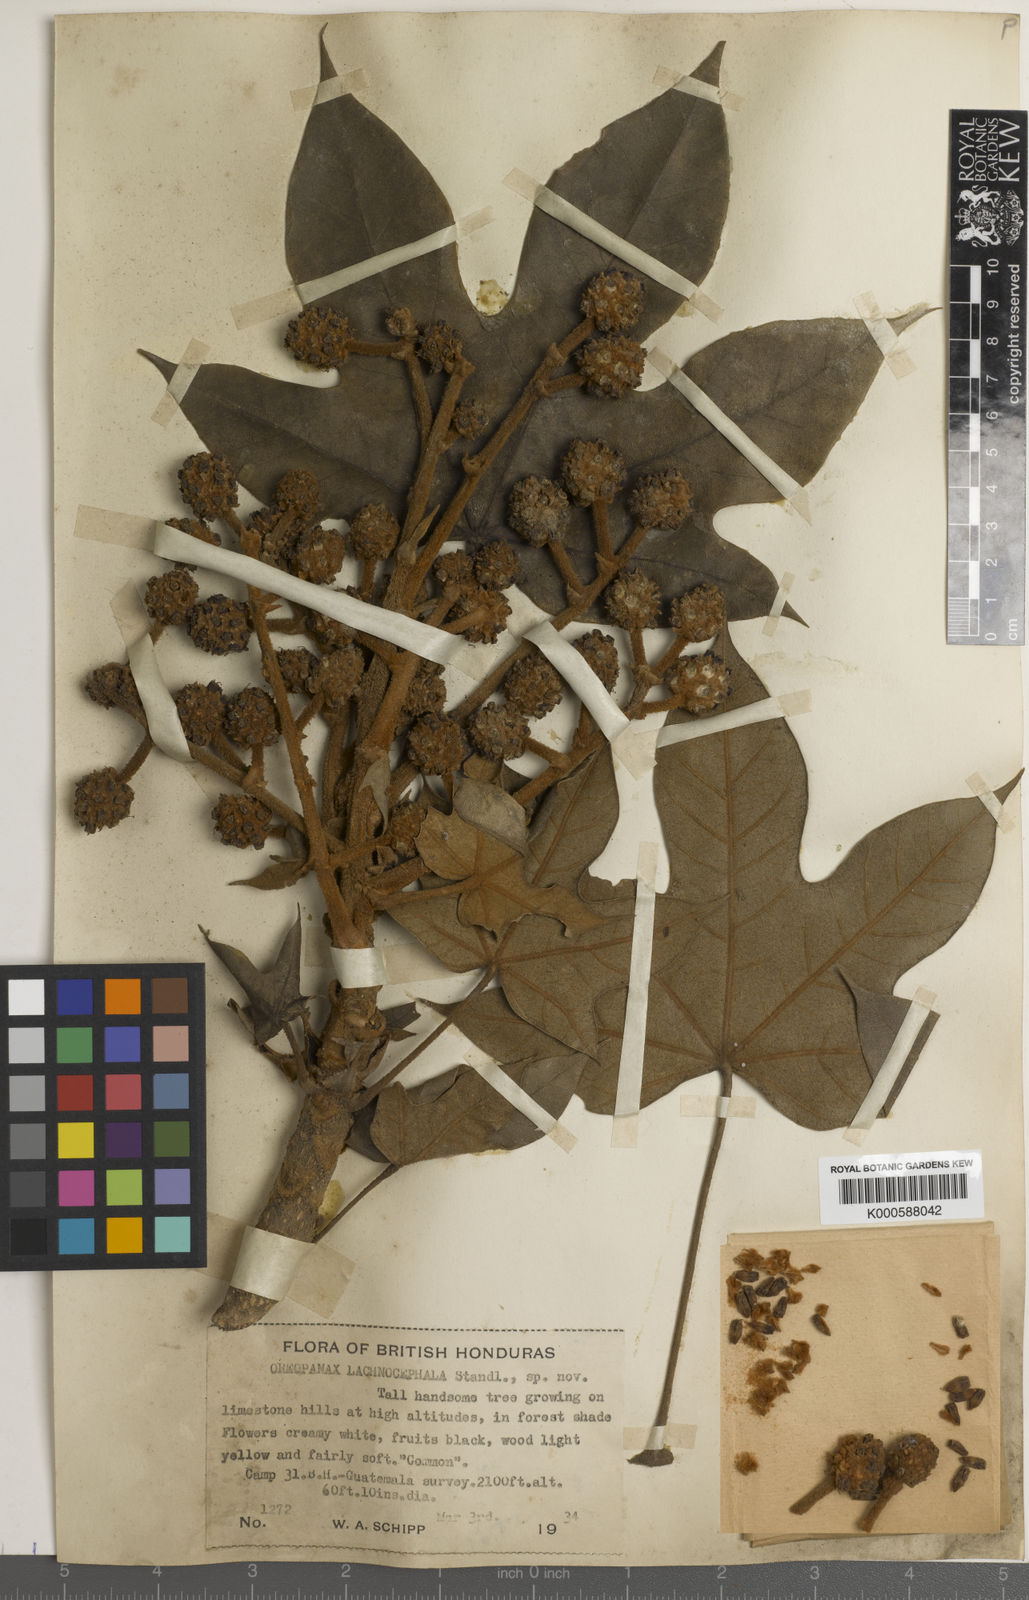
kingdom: Plantae
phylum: Tracheophyta
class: Magnoliopsida
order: Apiales
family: Araliaceae
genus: Oreopanax
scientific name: Oreopanax geminatus
